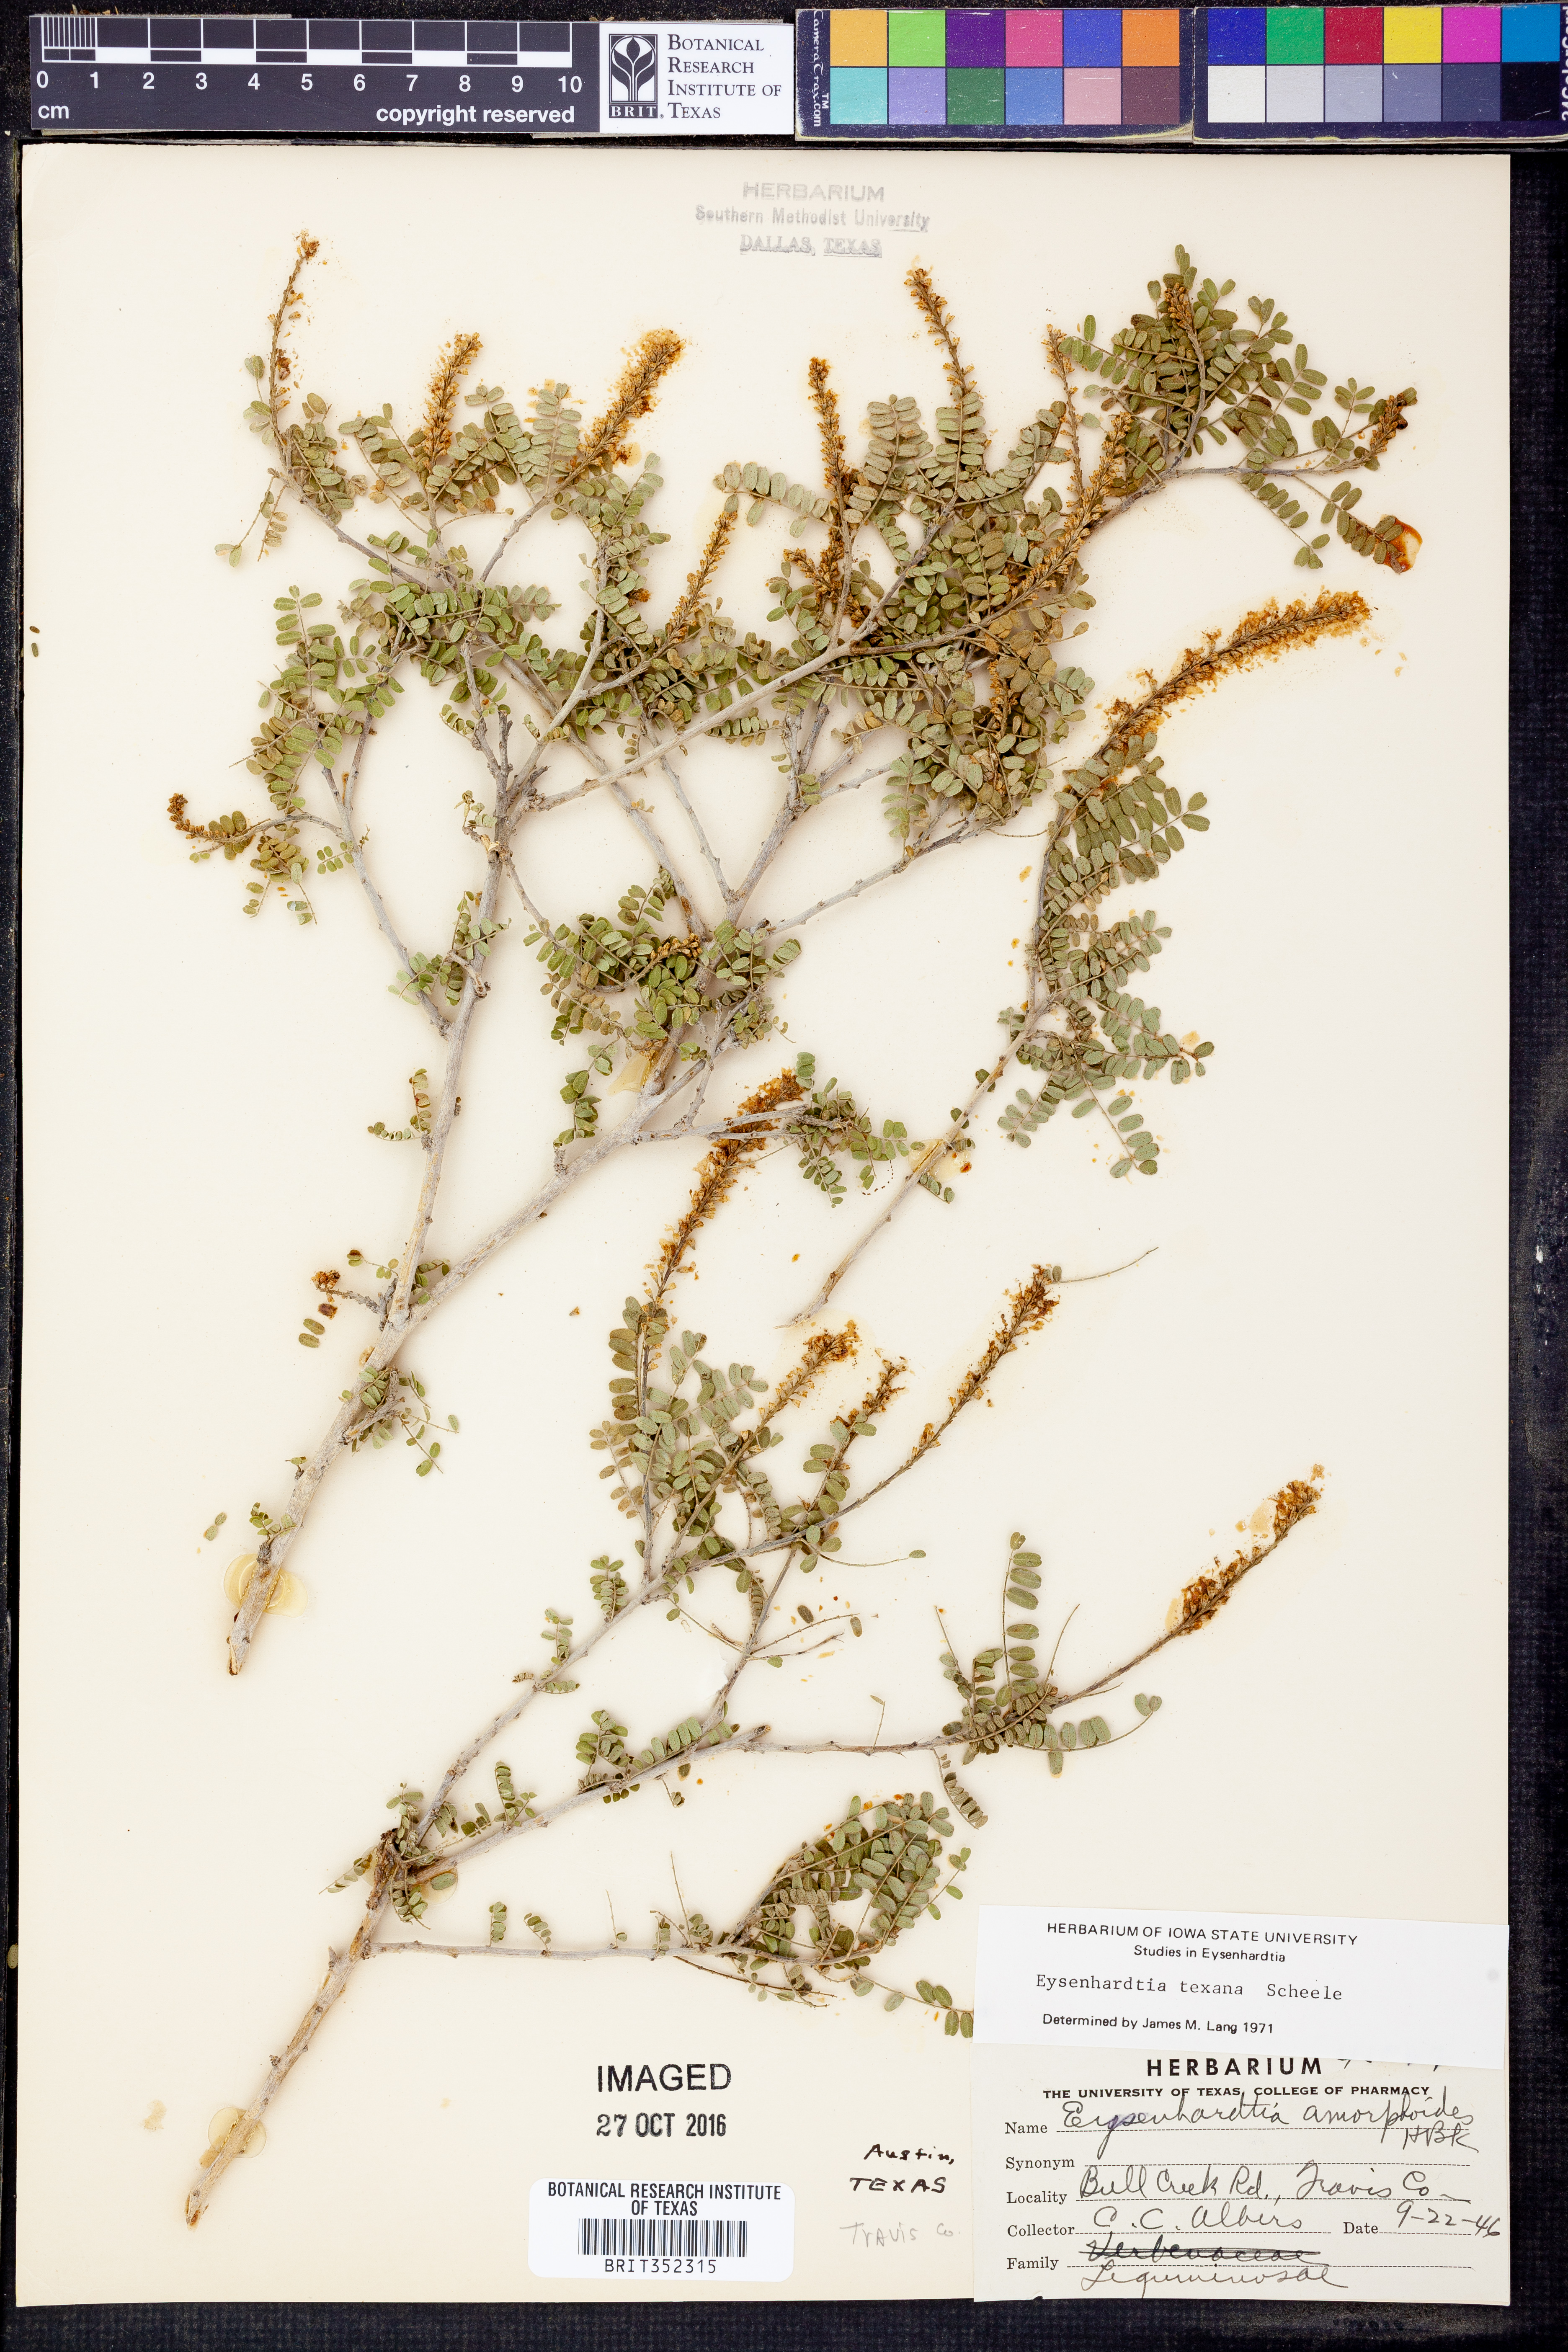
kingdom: Plantae
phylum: Tracheophyta
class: Magnoliopsida
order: Fabales
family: Fabaceae
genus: Eysenhardtia
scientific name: Eysenhardtia texana
